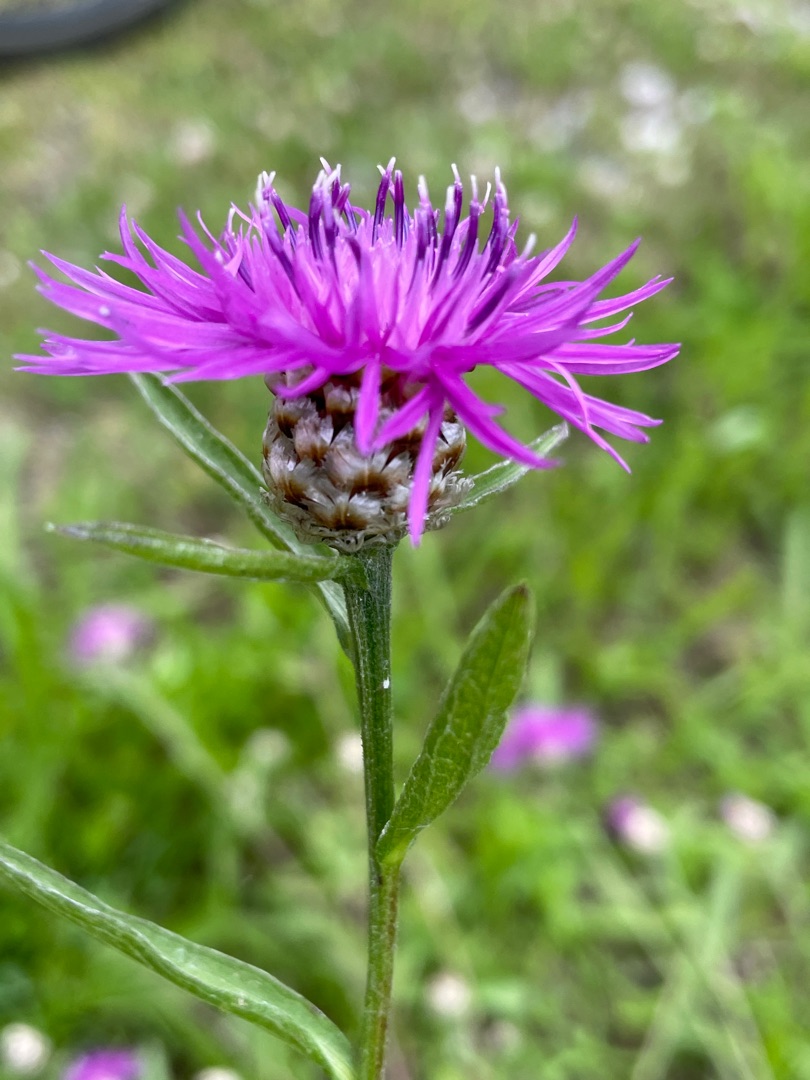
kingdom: Plantae
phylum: Tracheophyta
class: Magnoliopsida
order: Asterales
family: Asteraceae
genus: Centaurea
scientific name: Centaurea jacea
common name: Almindelig knopurt
